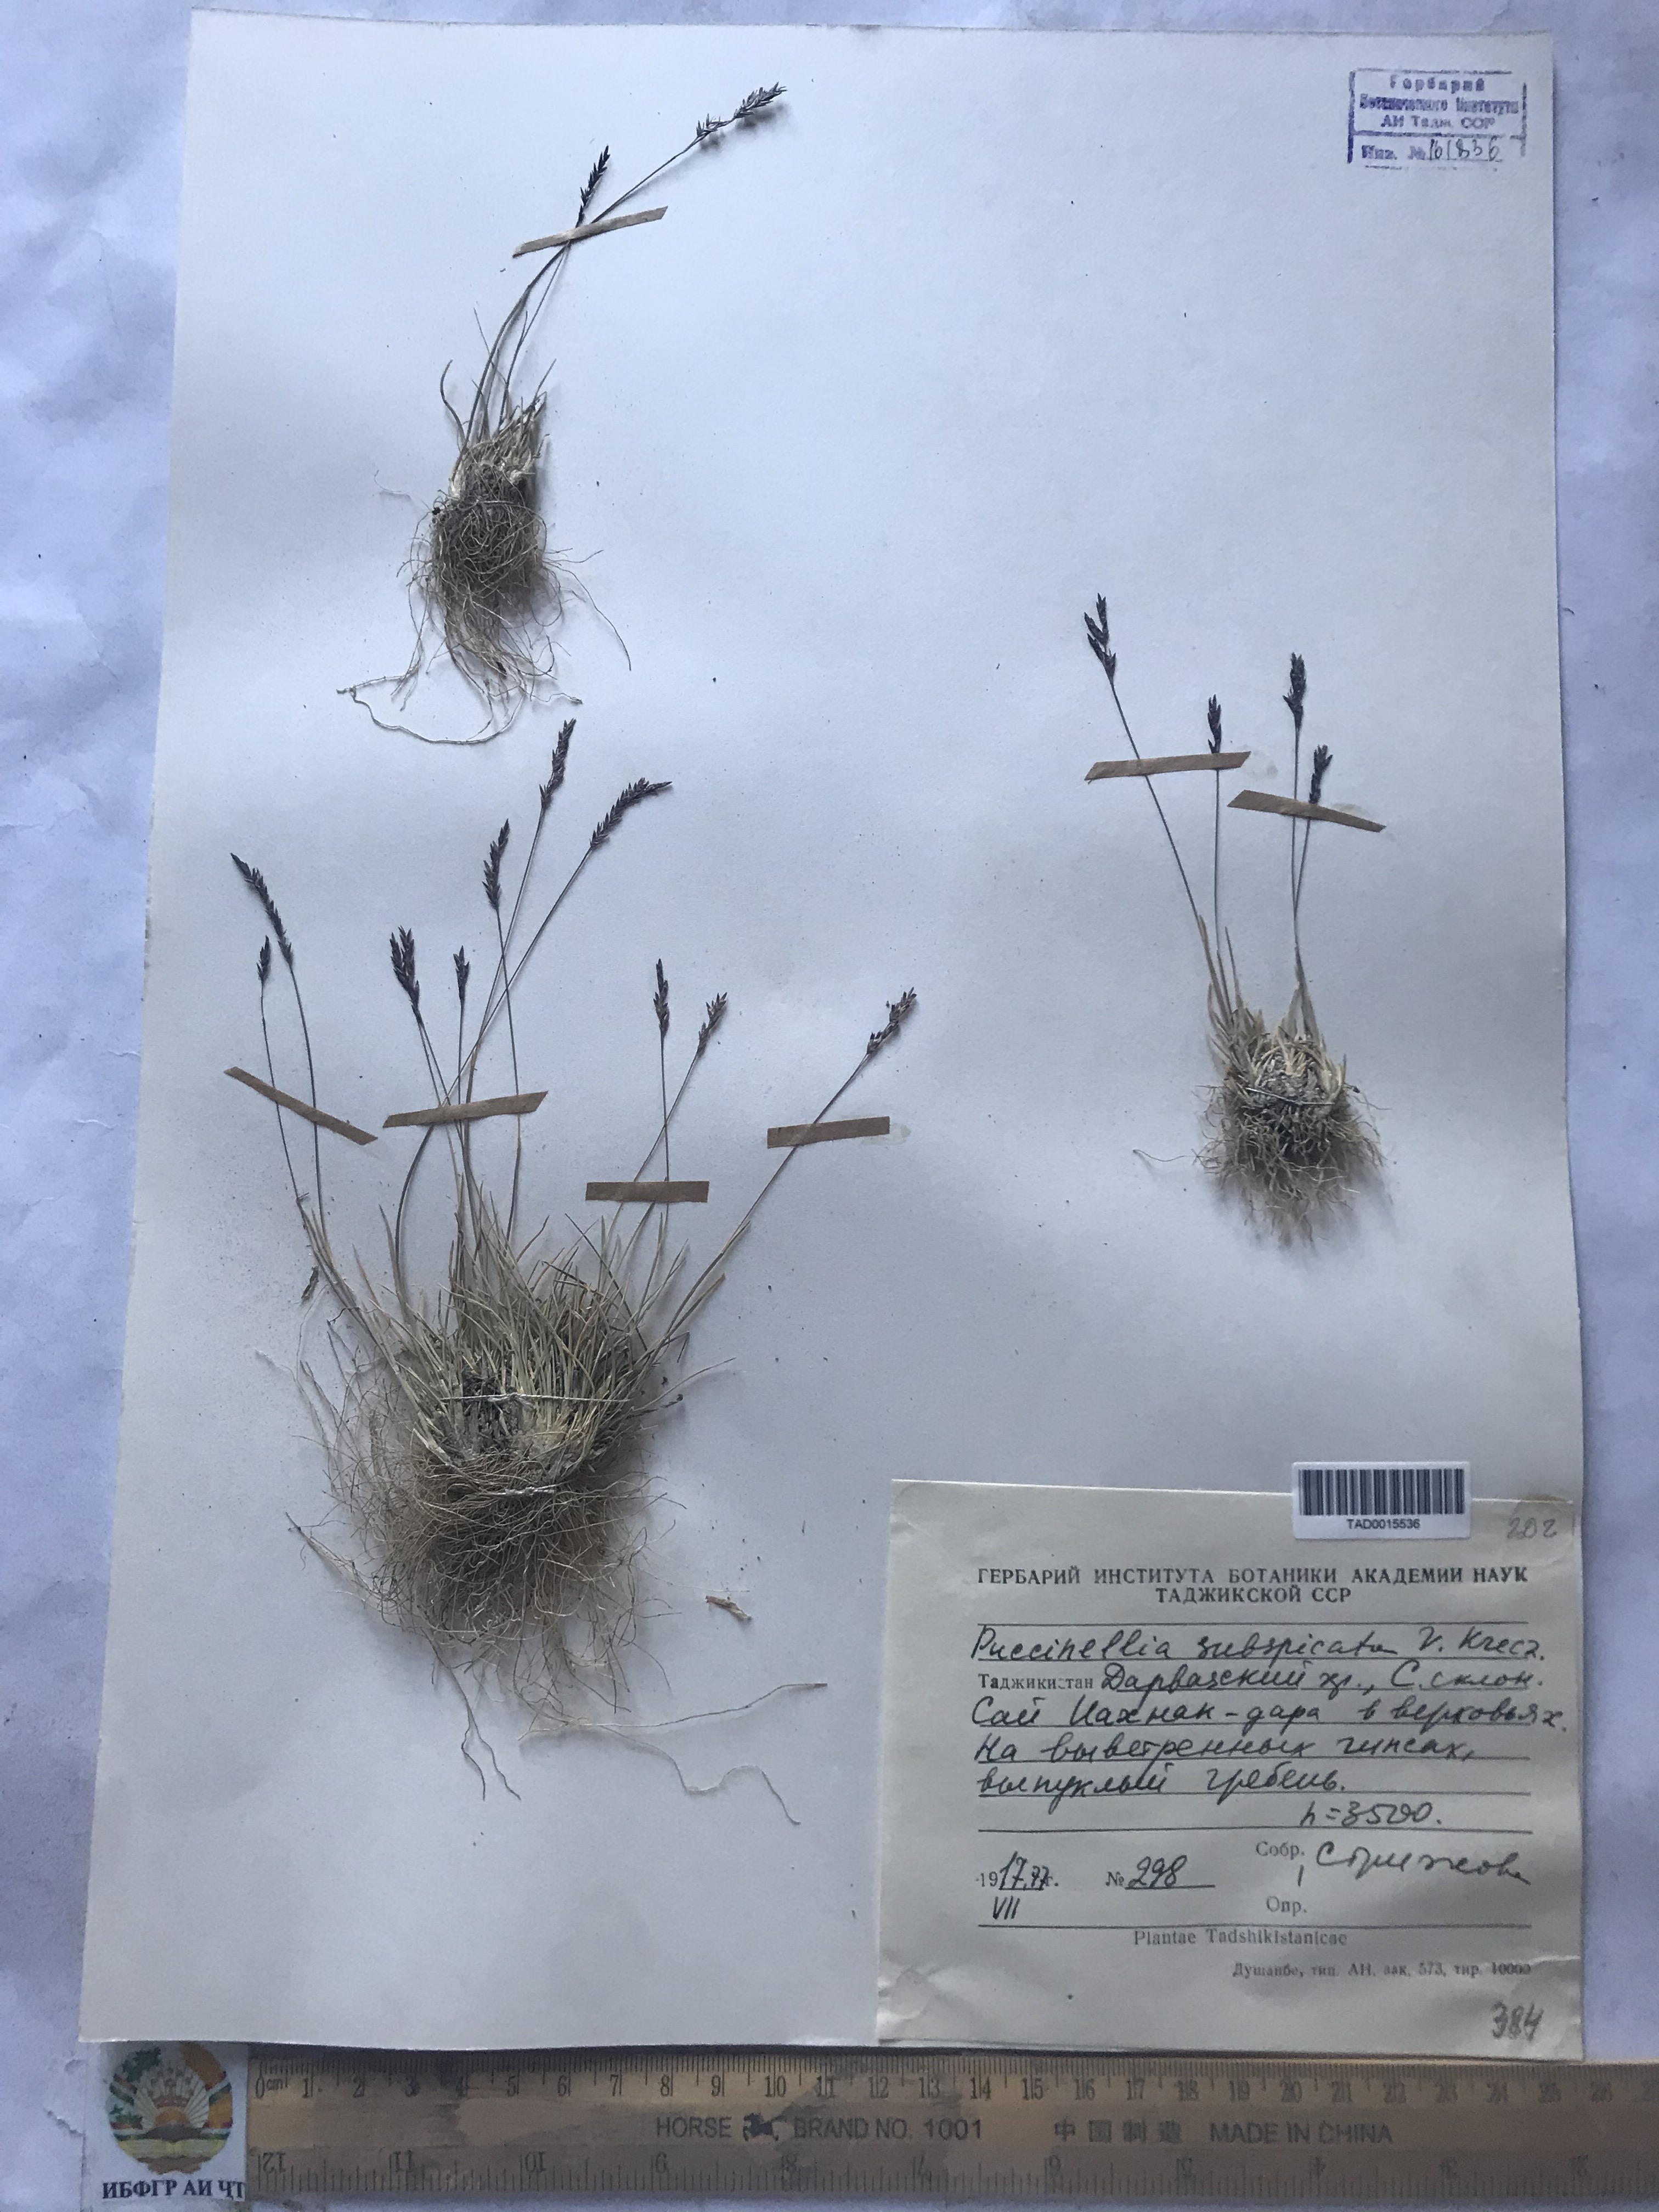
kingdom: Plantae
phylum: Tracheophyta
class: Liliopsida
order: Poales
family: Poaceae
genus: Puccinellia
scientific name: Puccinellia subspicata
